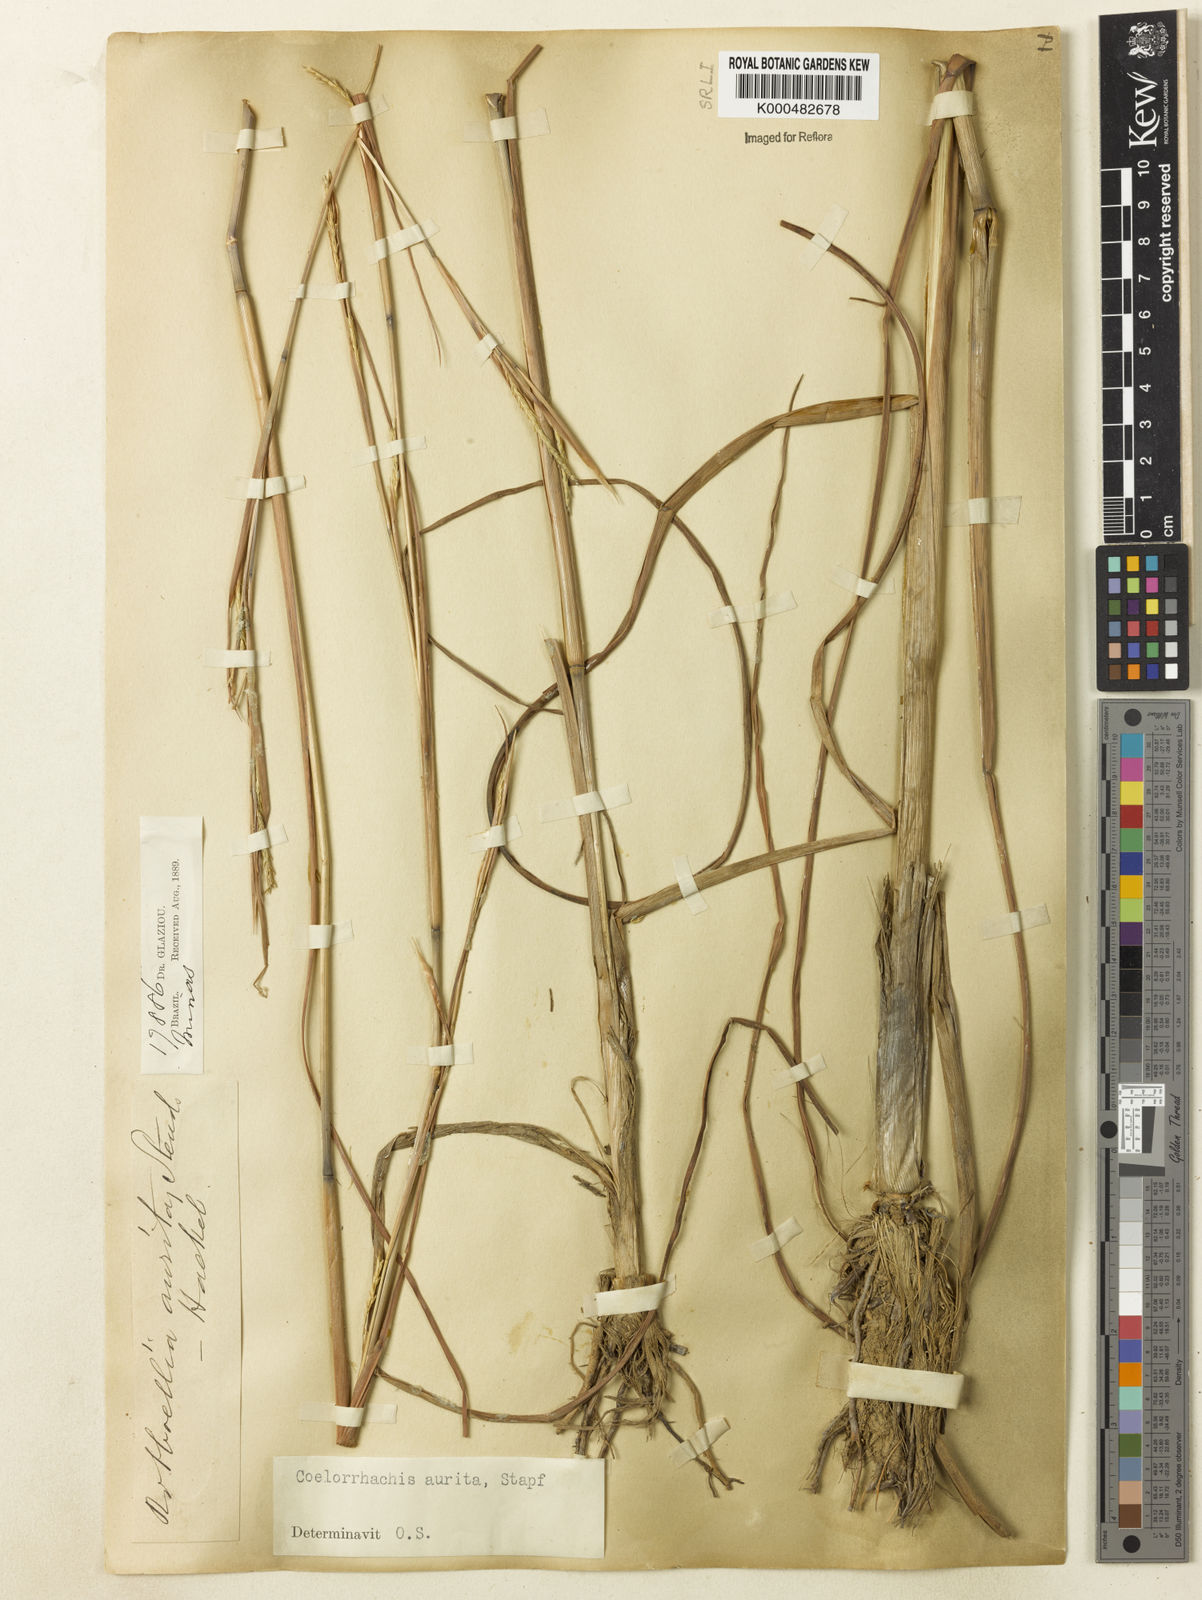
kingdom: Plantae
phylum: Tracheophyta
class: Liliopsida
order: Poales
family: Poaceae
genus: Rottboellia
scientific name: Rottboellia aurita
